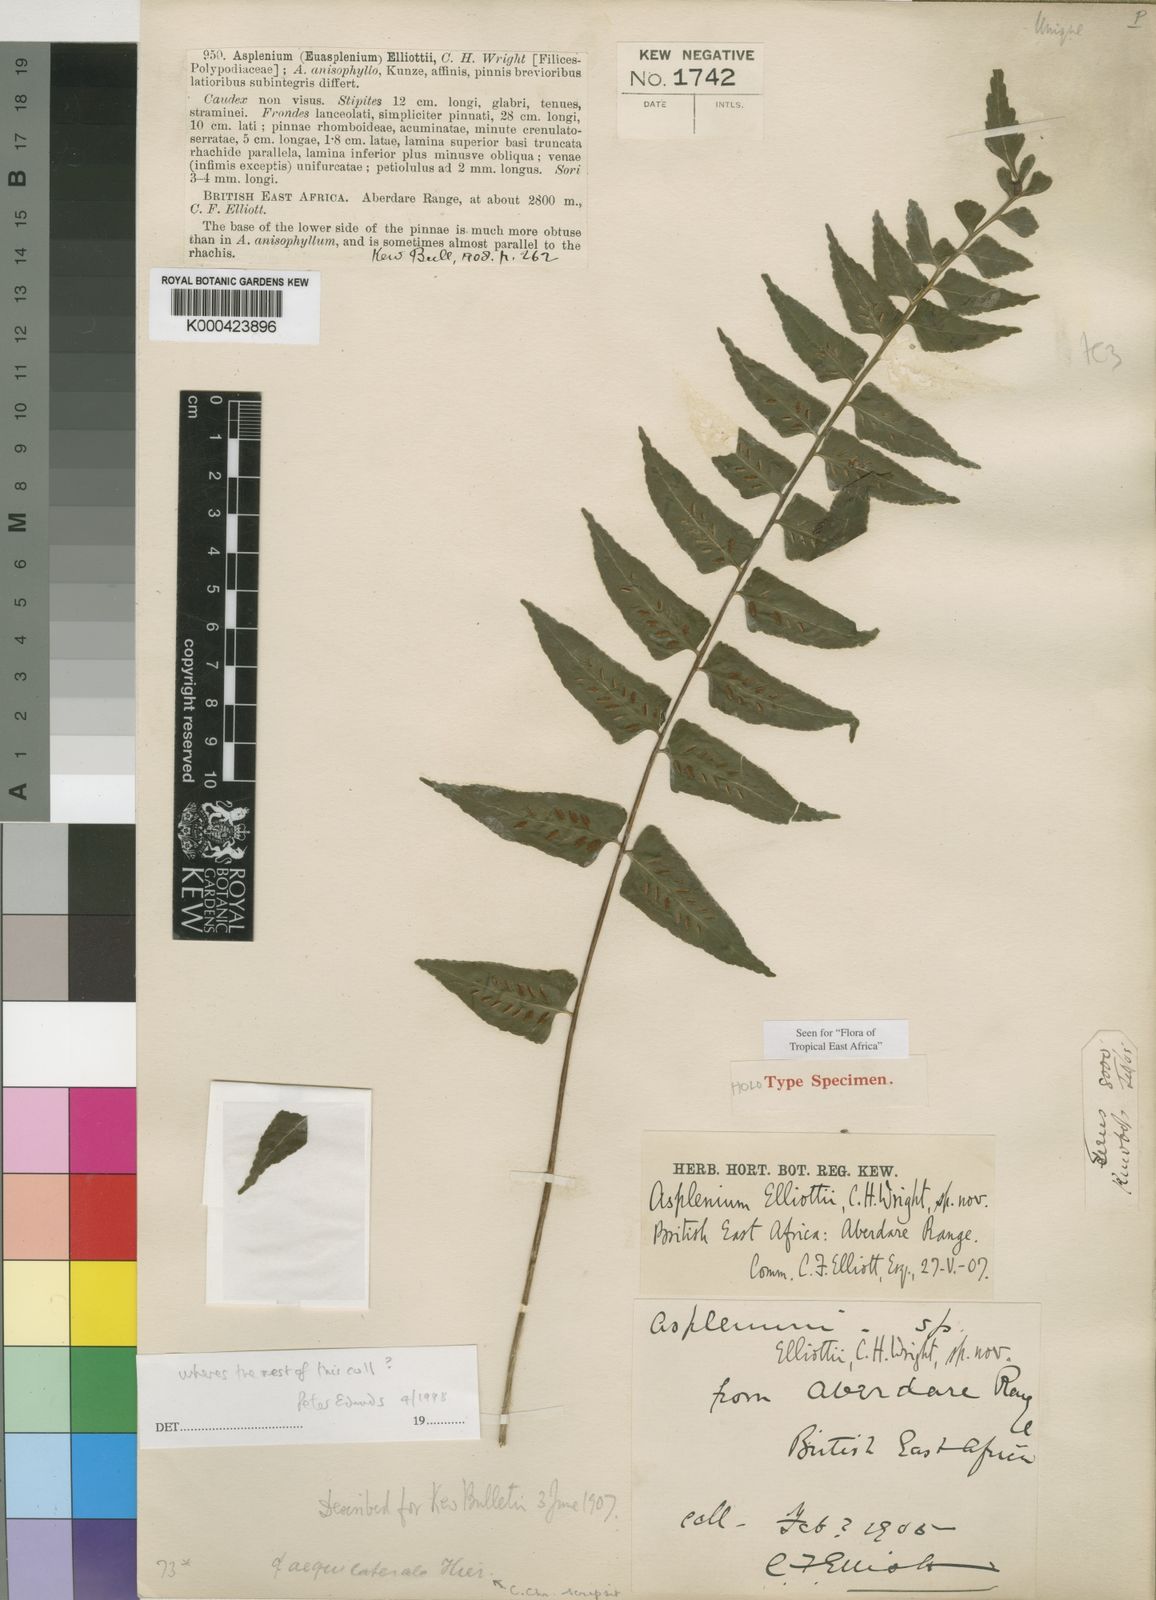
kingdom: Plantae
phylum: Tracheophyta
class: Polypodiopsida
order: Polypodiales
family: Aspleniaceae
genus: Asplenium
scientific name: Asplenium elliottii
